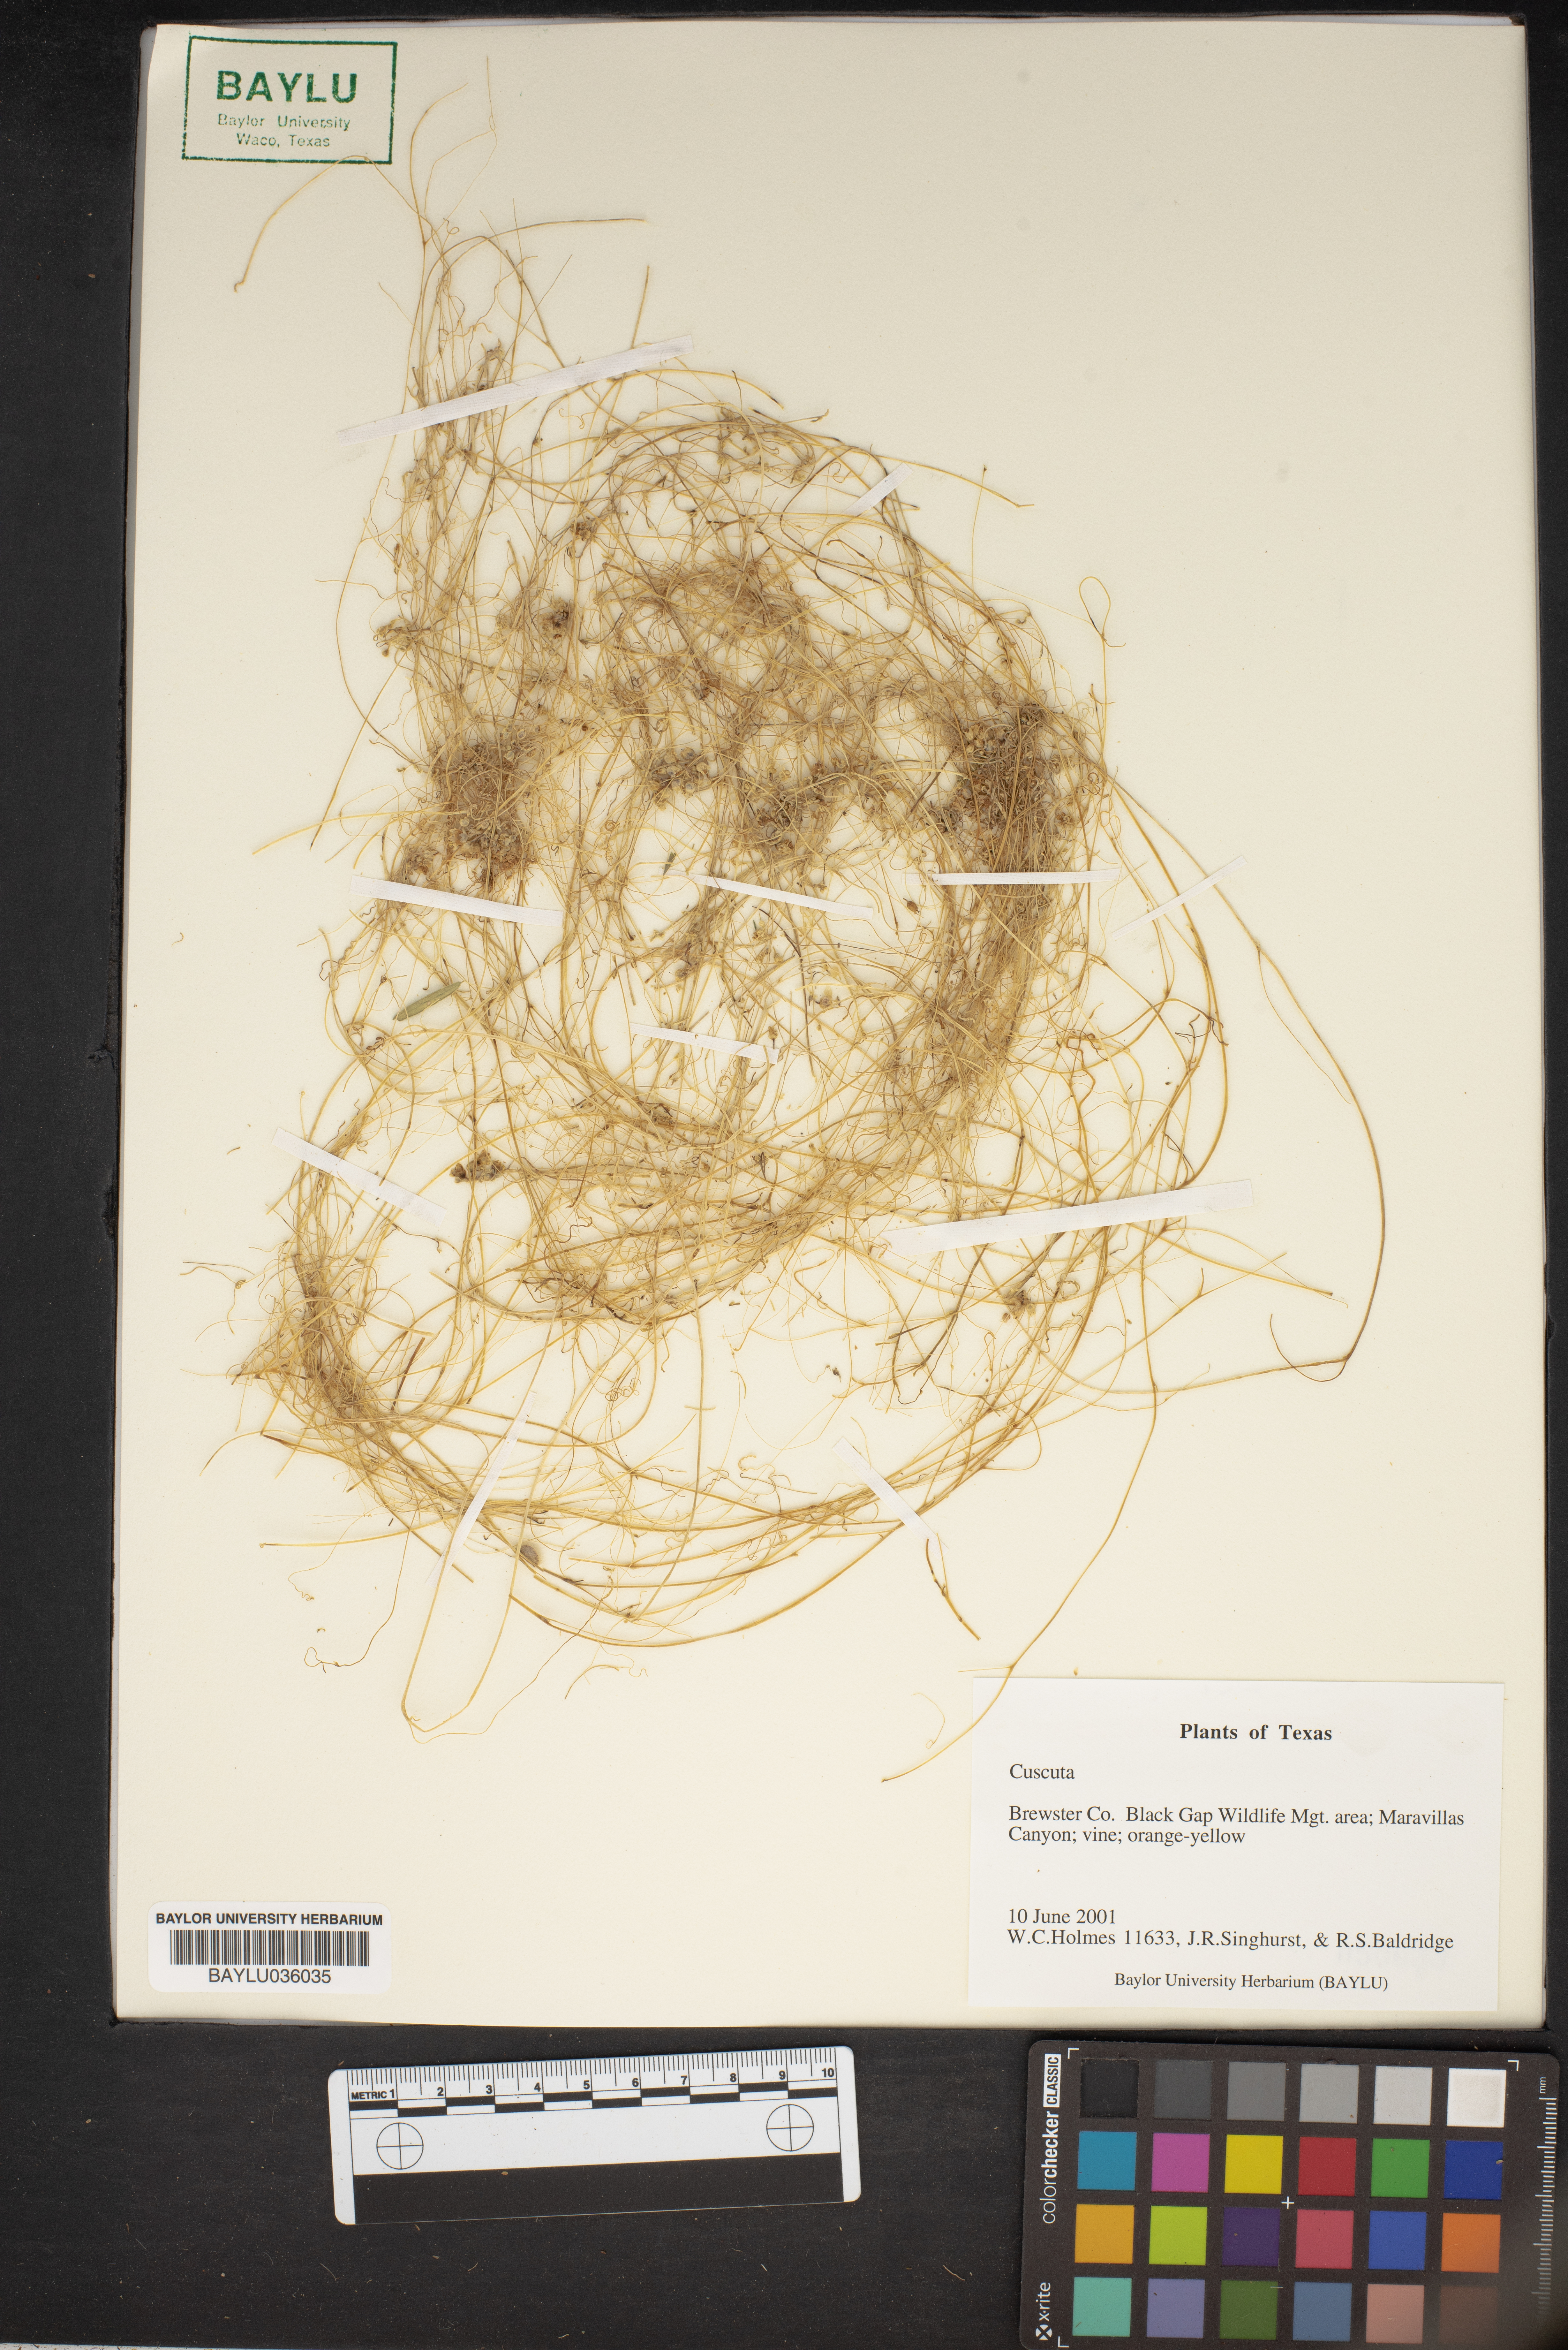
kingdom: Plantae
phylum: Tracheophyta
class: Magnoliopsida
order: Solanales
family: Convolvulaceae
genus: Cuscuta
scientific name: Cuscuta
